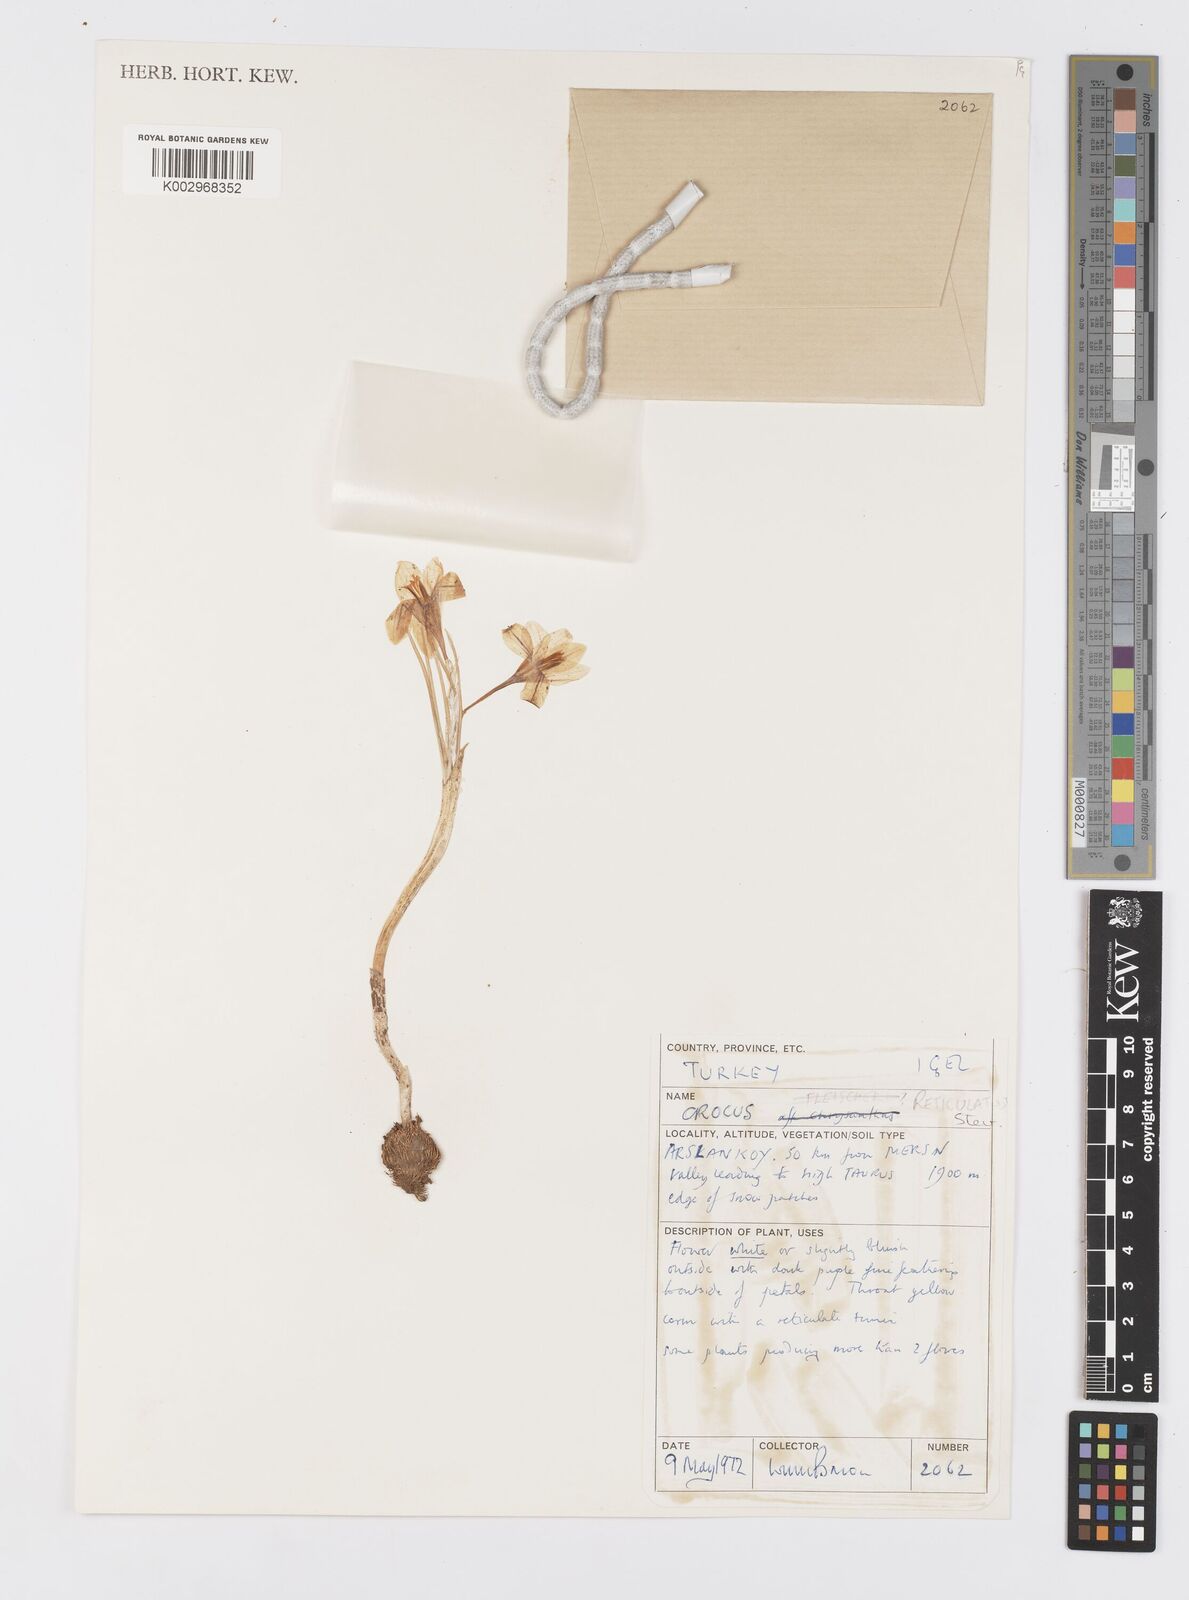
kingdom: Plantae
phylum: Tracheophyta
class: Liliopsida
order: Asparagales
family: Iridaceae
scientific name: Iridaceae
